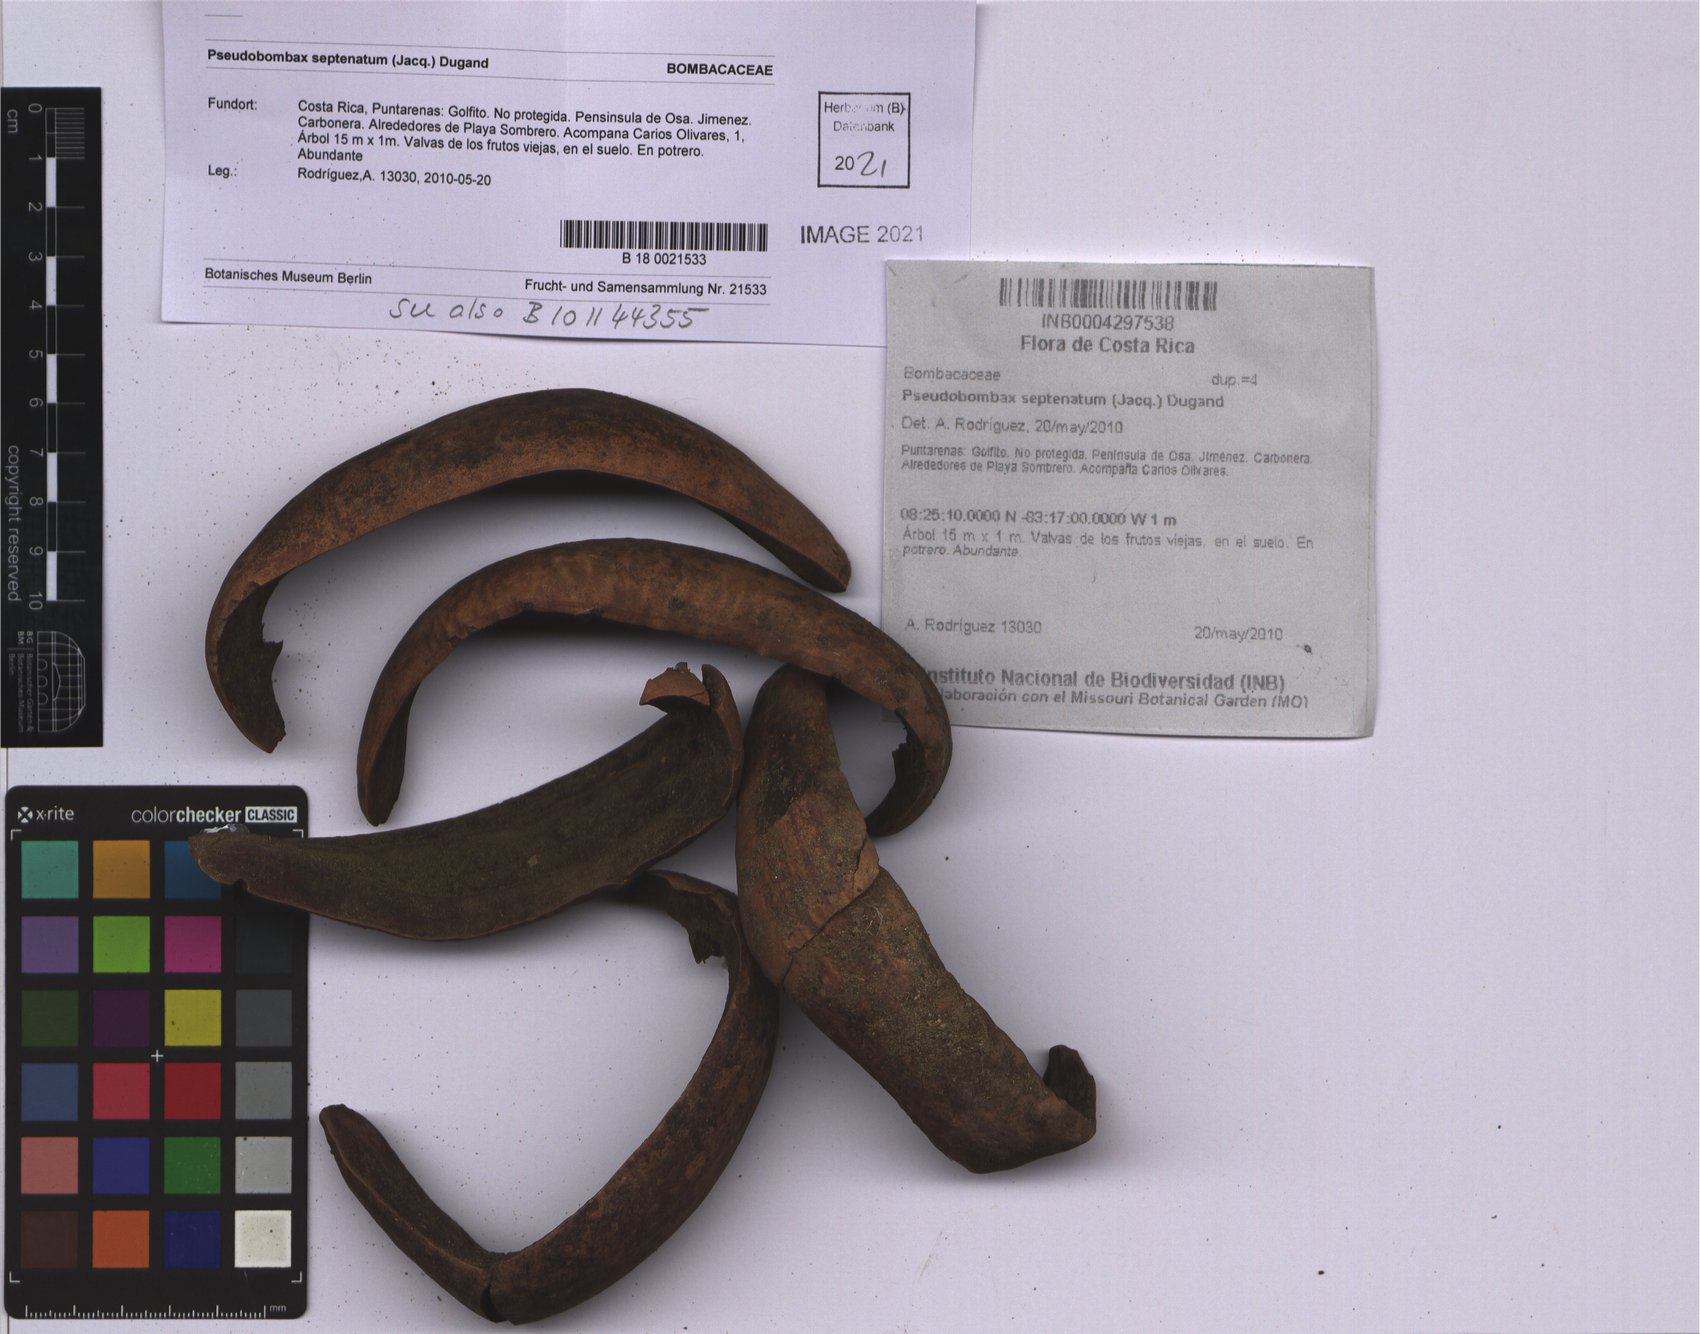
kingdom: Plantae
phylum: Tracheophyta
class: Magnoliopsida
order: Malvales
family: Malvaceae
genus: Pseudobombax
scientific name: Pseudobombax septenatum
